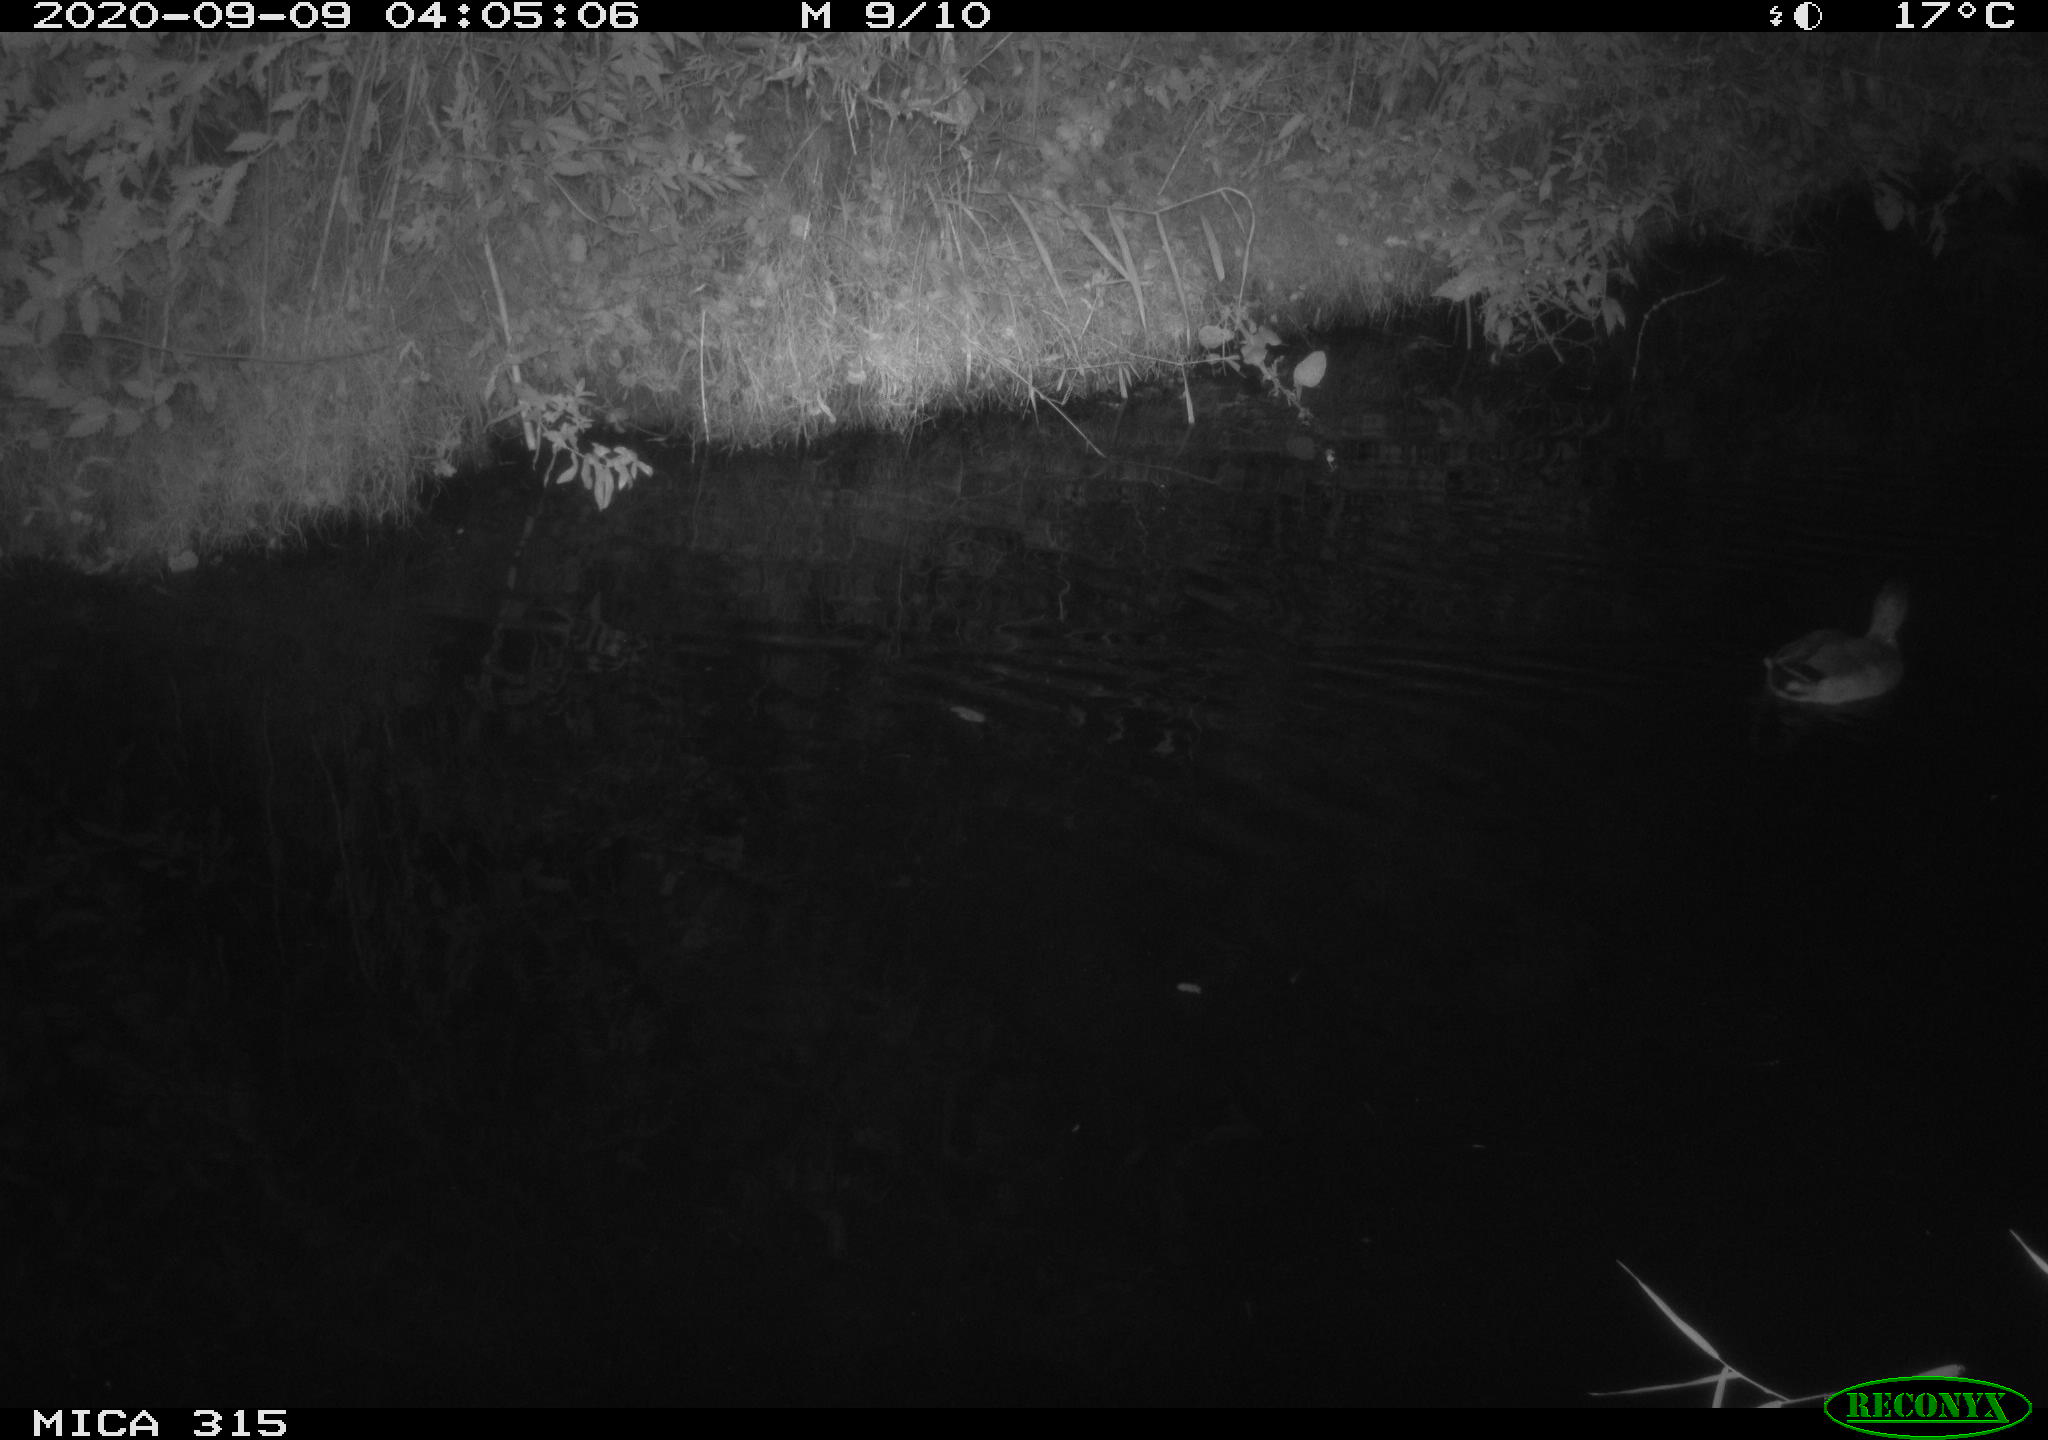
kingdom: Animalia
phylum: Chordata
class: Aves
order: Anseriformes
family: Anatidae
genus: Anas
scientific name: Anas platyrhynchos
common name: Mallard
